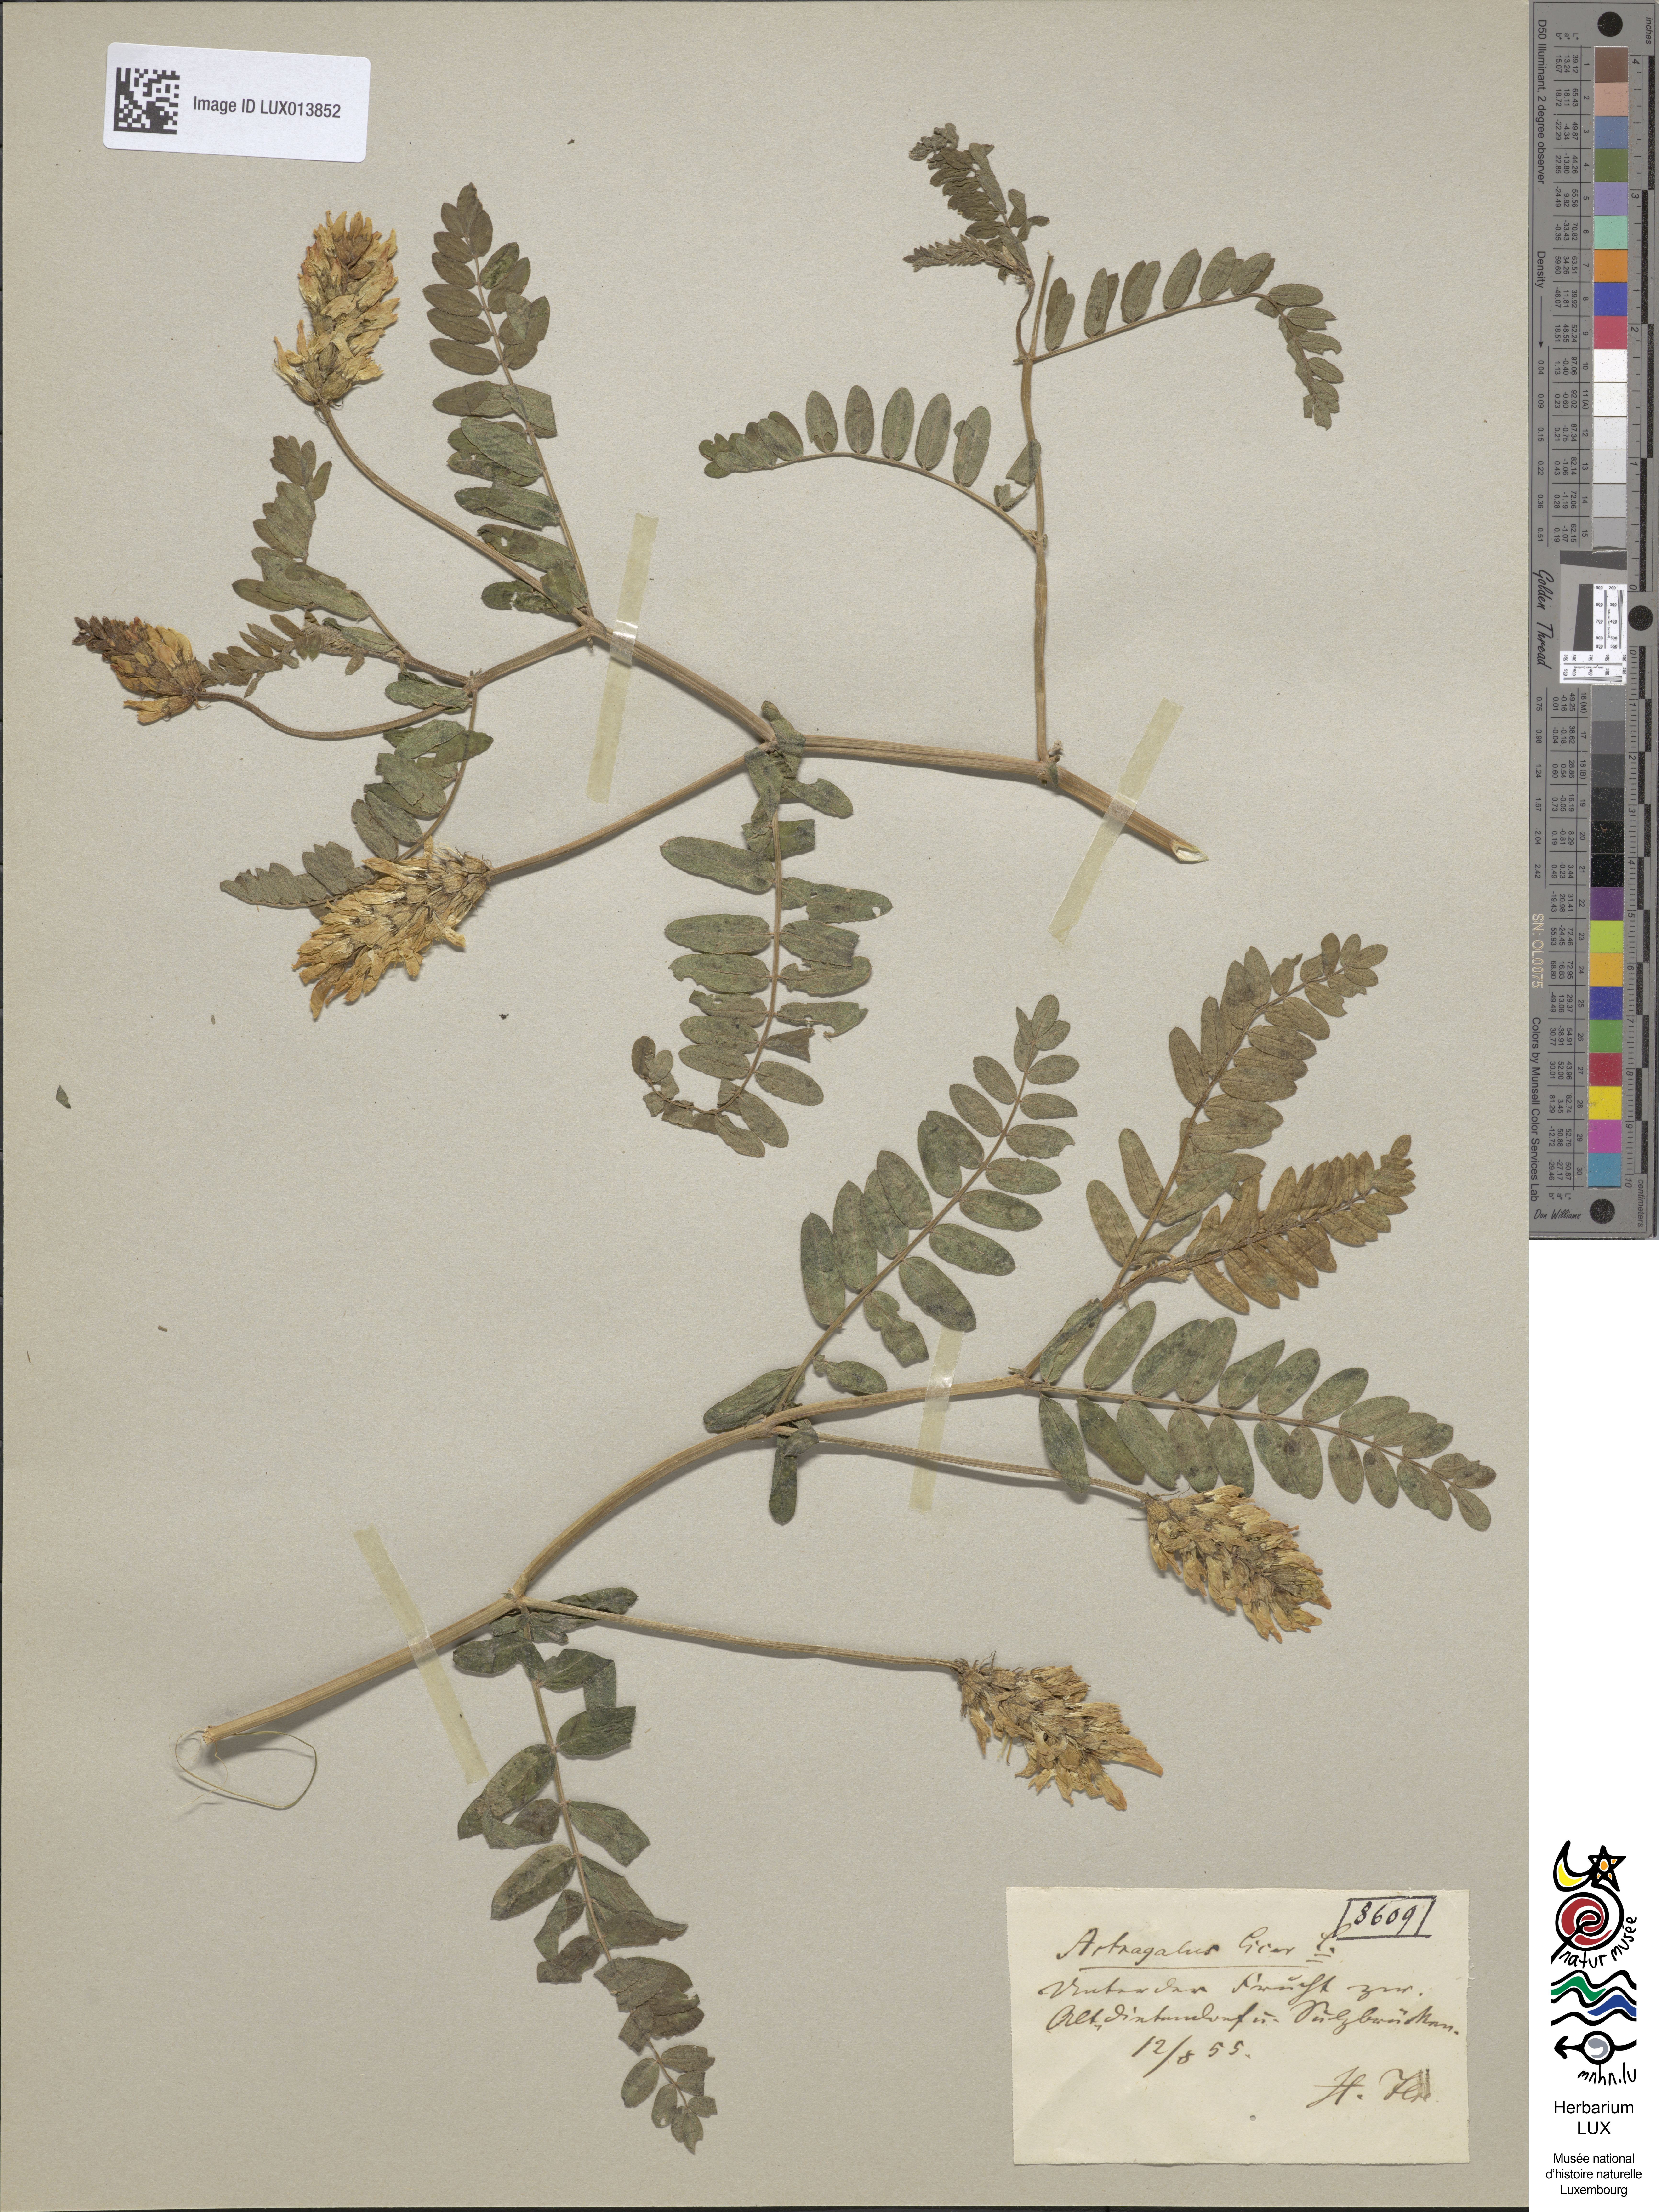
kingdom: Plantae
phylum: Tracheophyta
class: Magnoliopsida
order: Fabales
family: Fabaceae
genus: Astragalus
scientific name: Astragalus cicer
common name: Chick-pea milk-vetch
